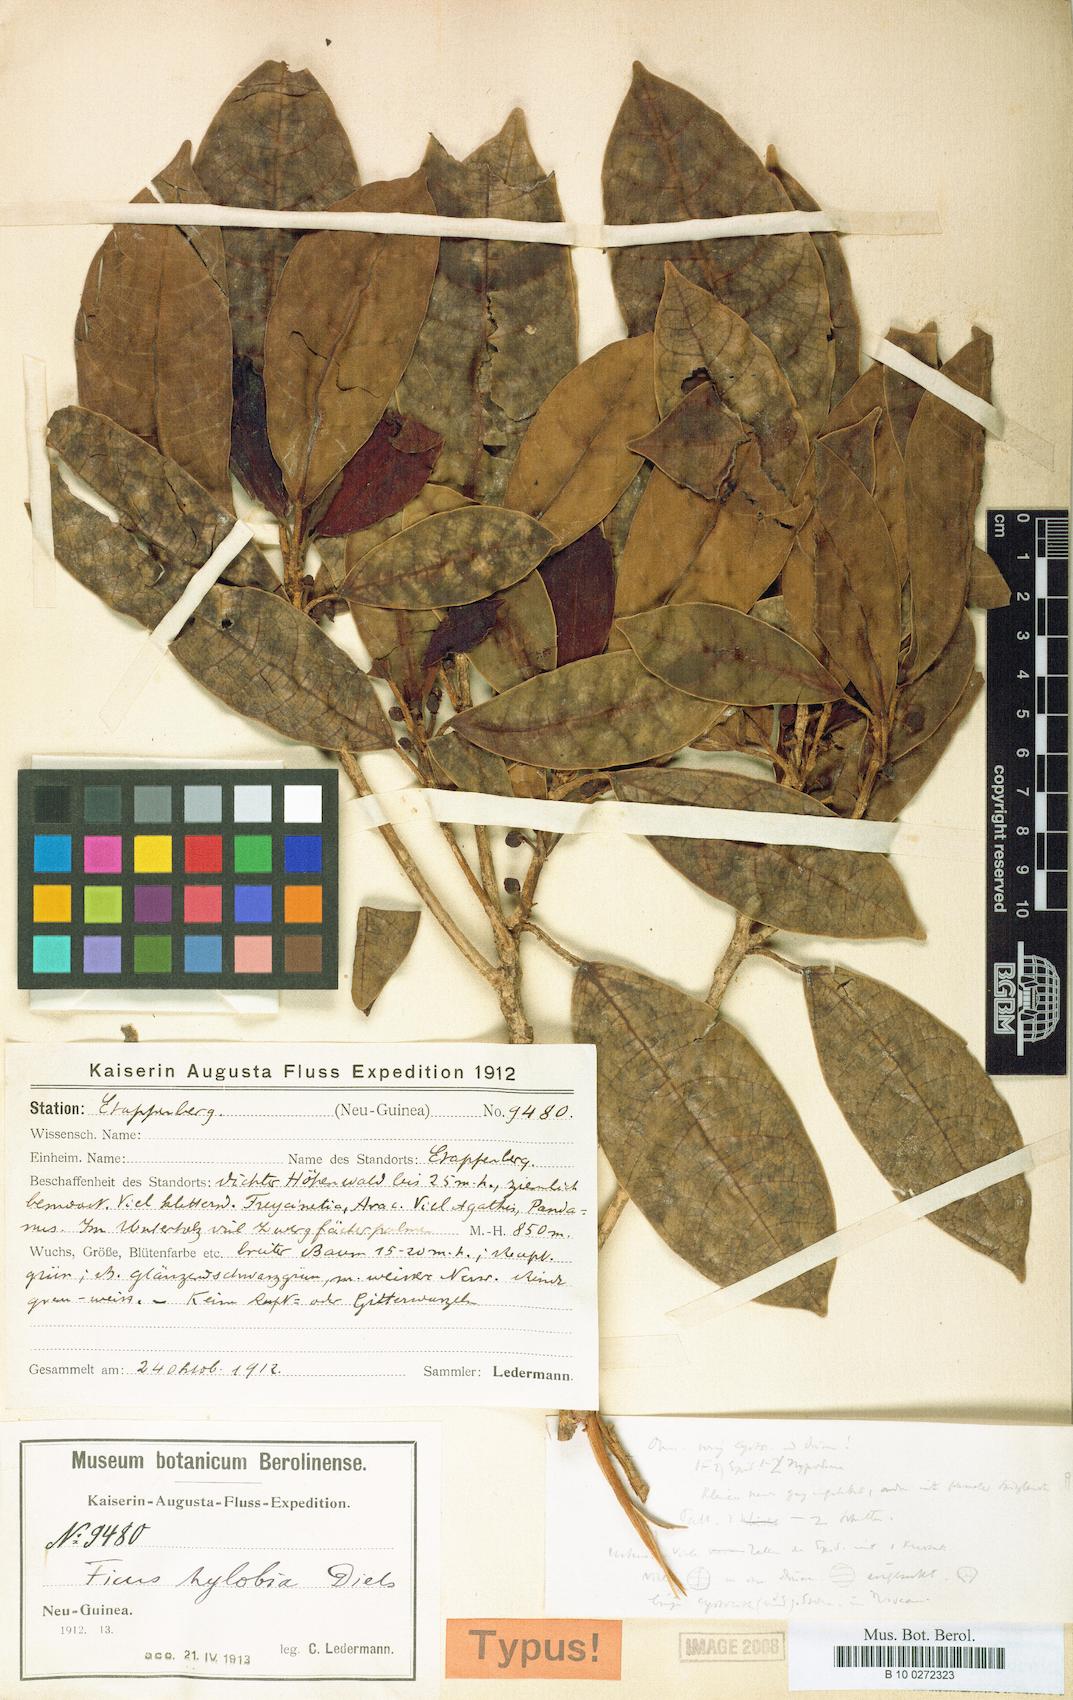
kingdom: Plantae
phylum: Tracheophyta
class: Magnoliopsida
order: Rosales
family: Moraceae
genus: Ficus
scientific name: Ficus casearioides
